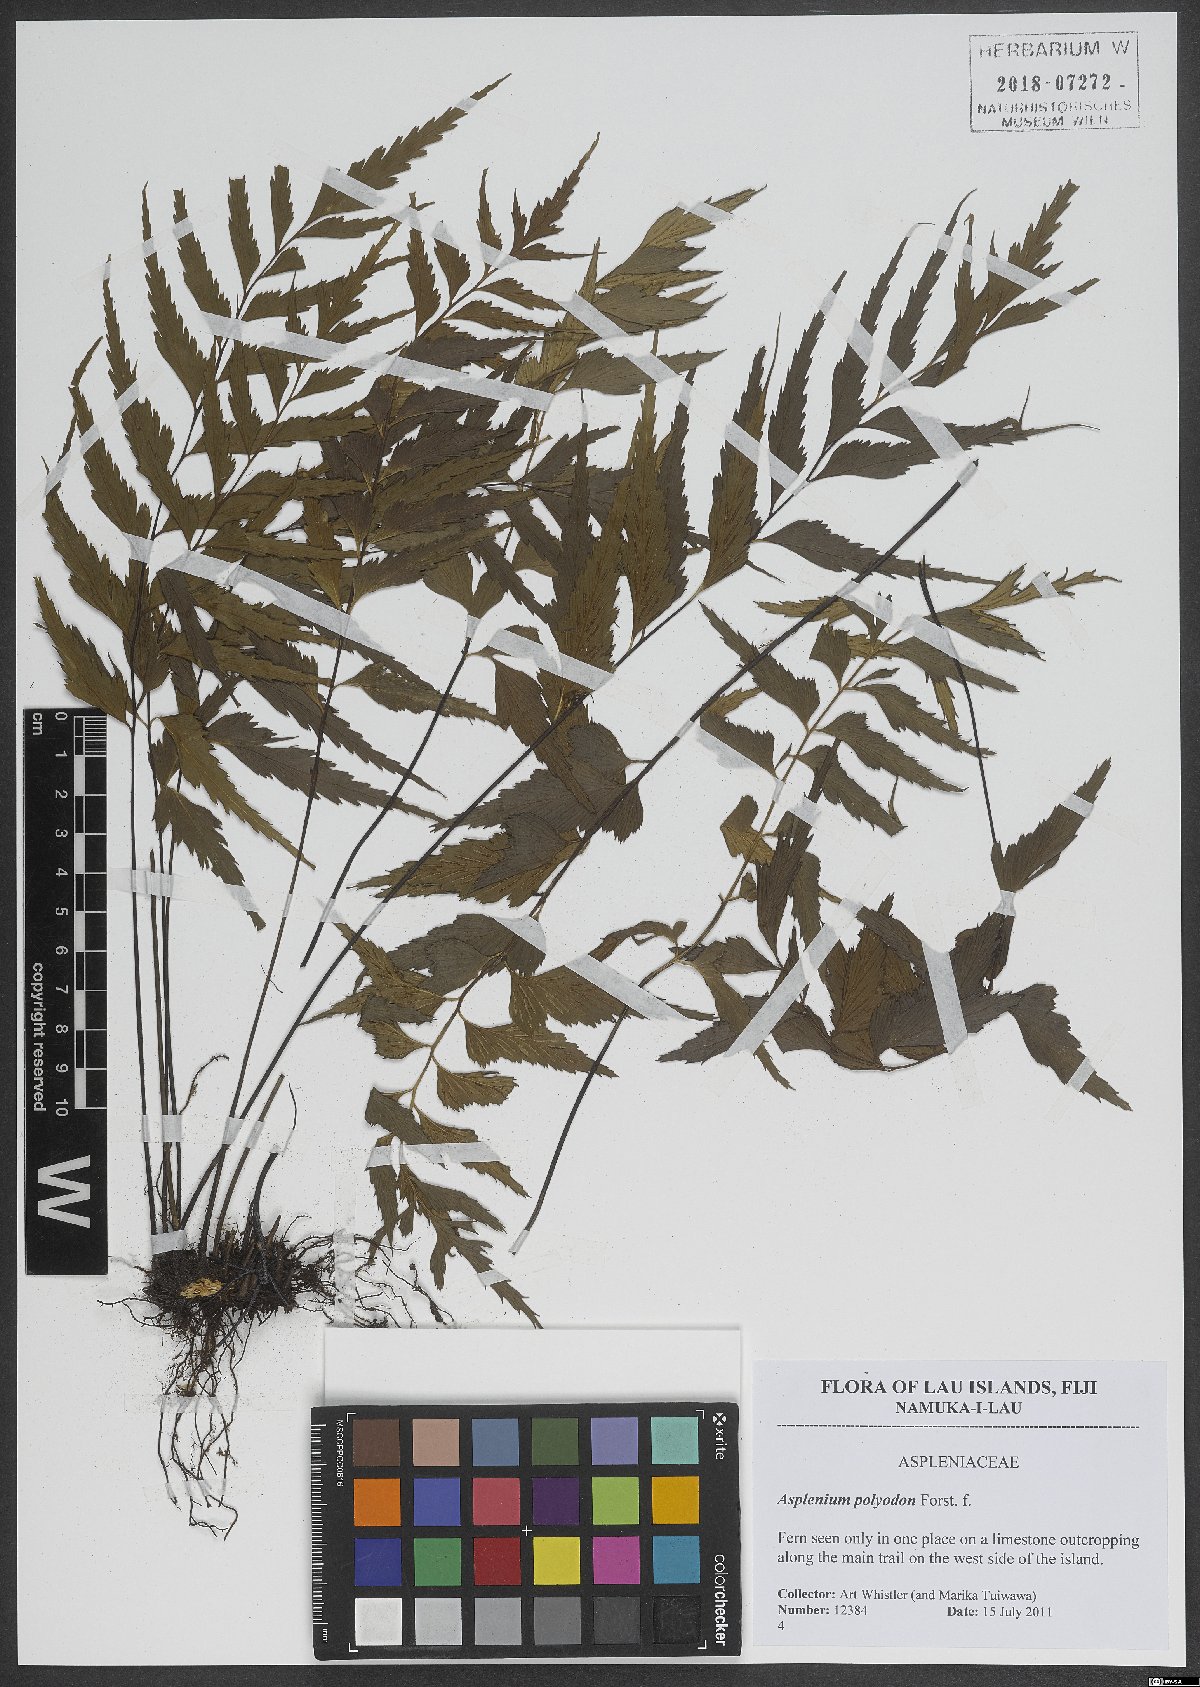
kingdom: Plantae
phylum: Tracheophyta
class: Polypodiopsida
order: Polypodiales
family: Aspleniaceae
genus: Asplenium
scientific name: Asplenium polyodon
